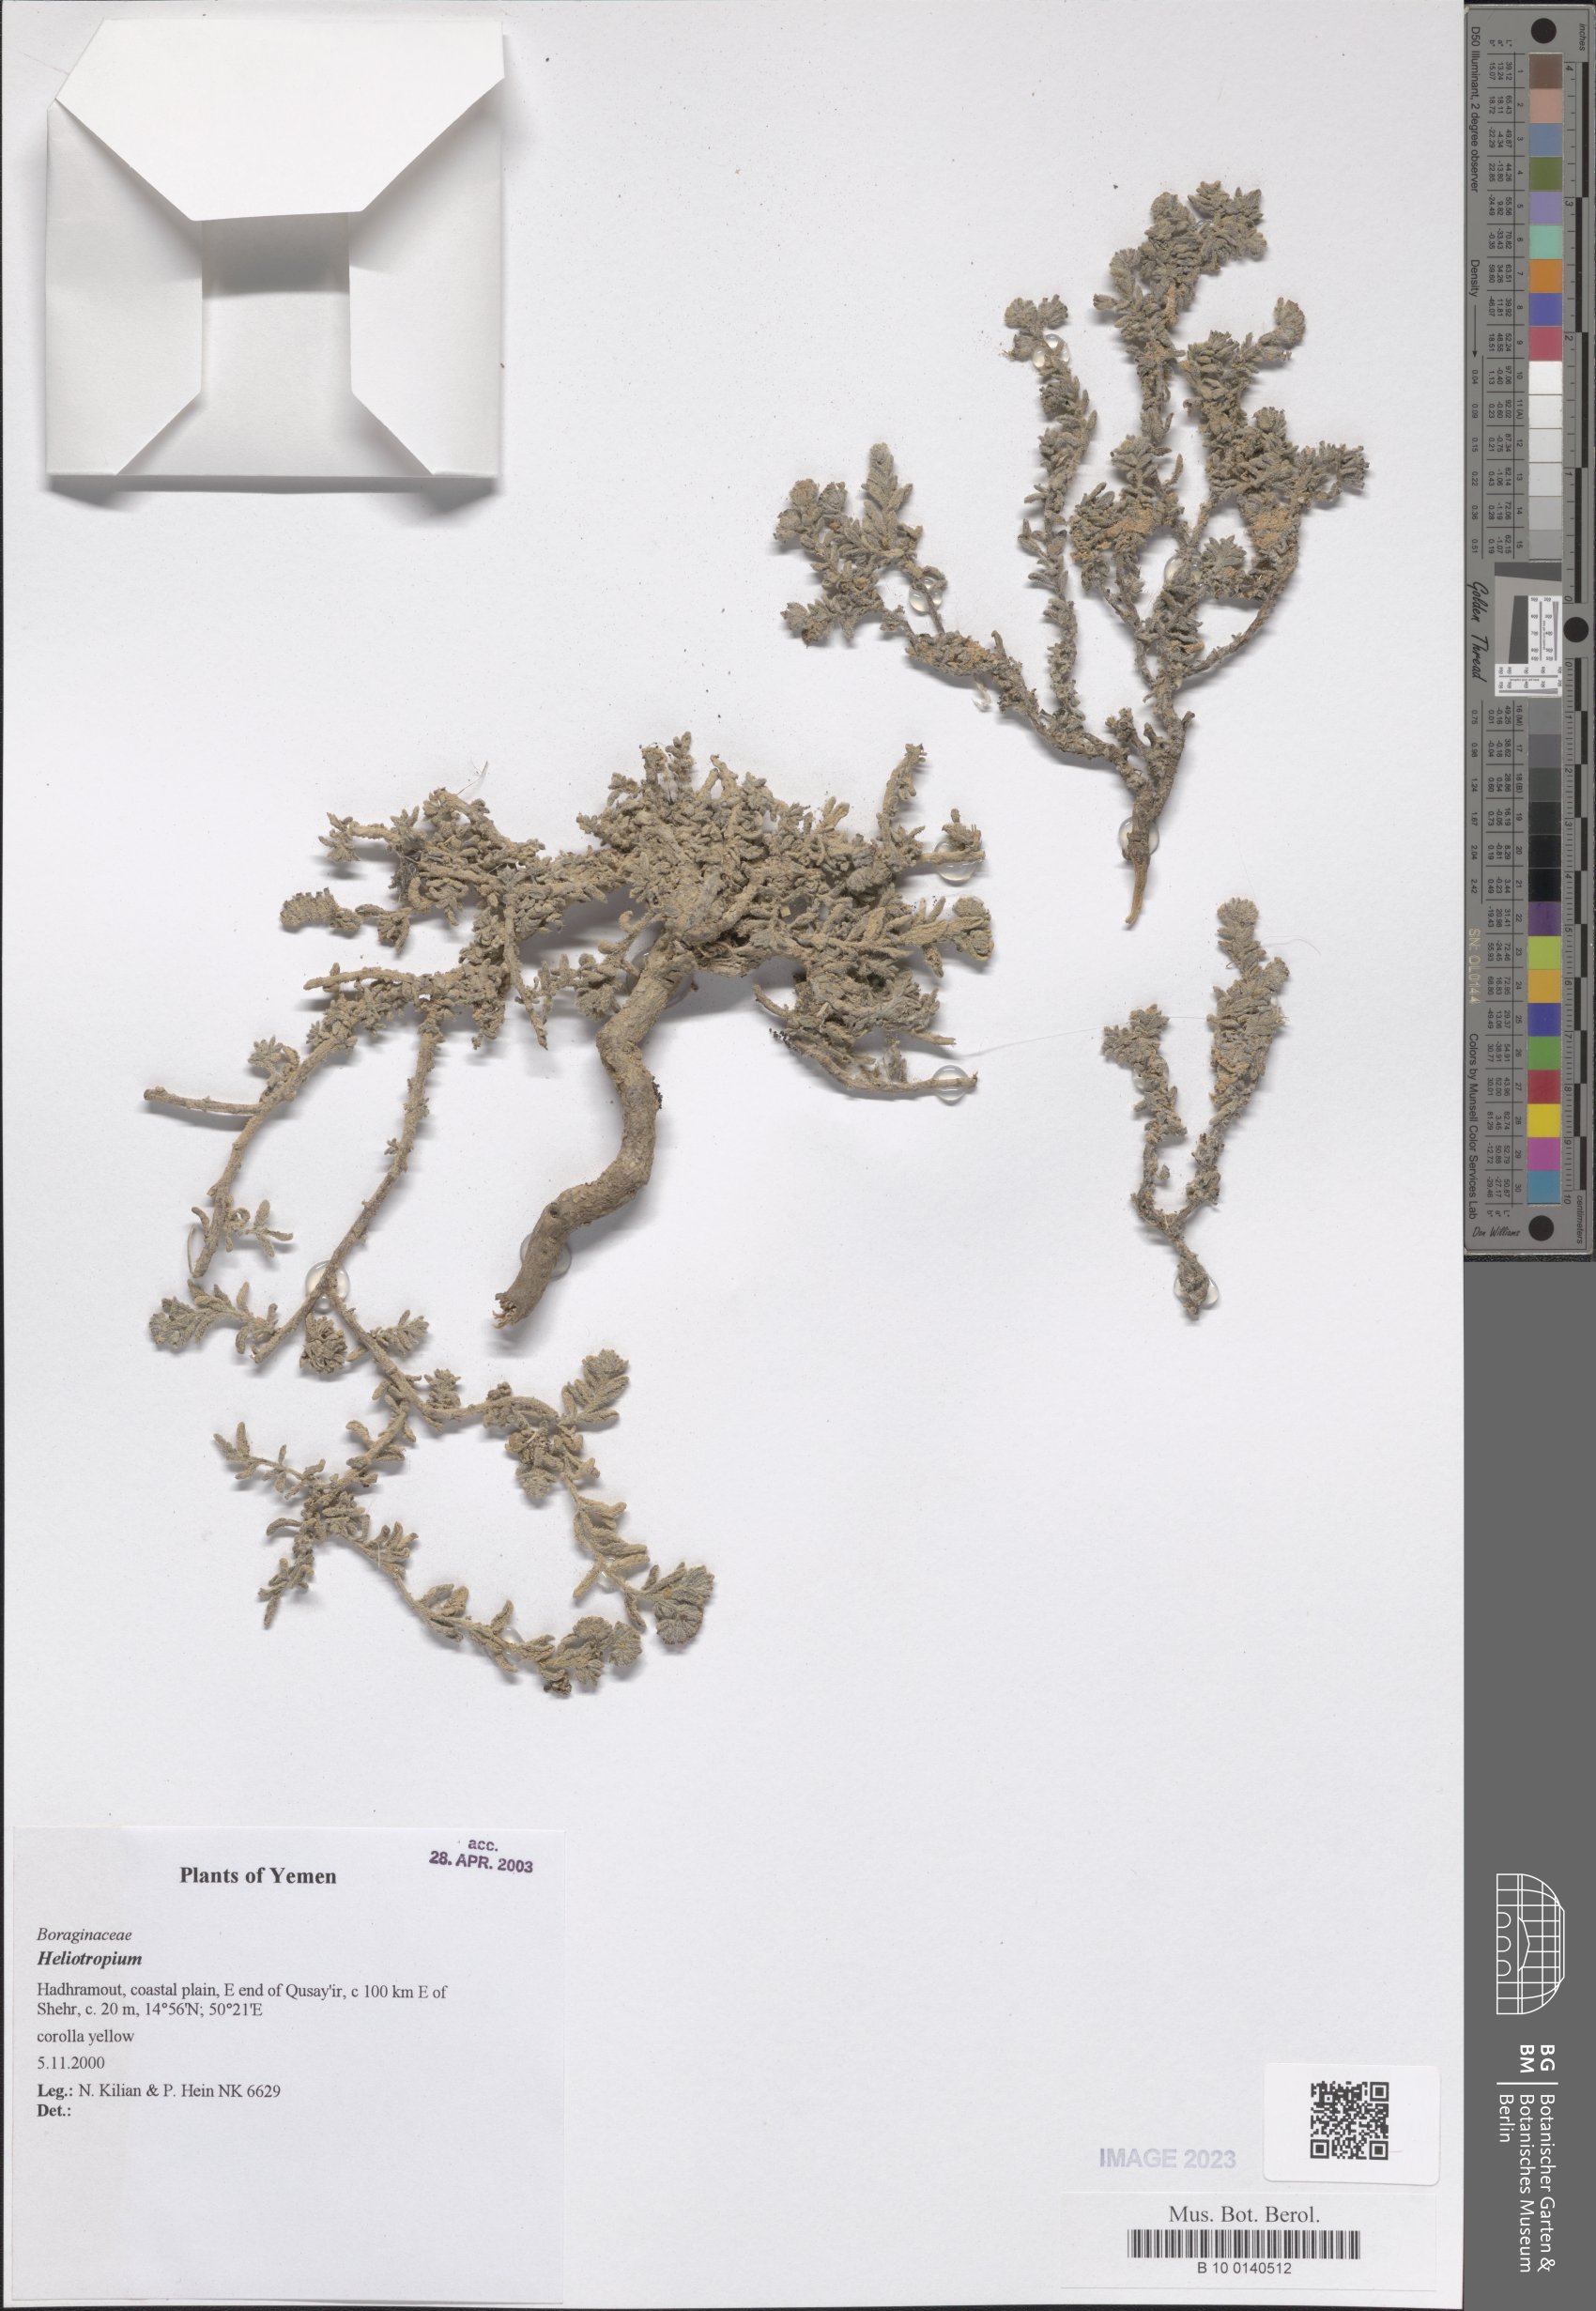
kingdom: Plantae
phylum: Tracheophyta
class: Magnoliopsida
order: Boraginales
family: Heliotropiaceae
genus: Heliotropium
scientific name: Heliotropium
